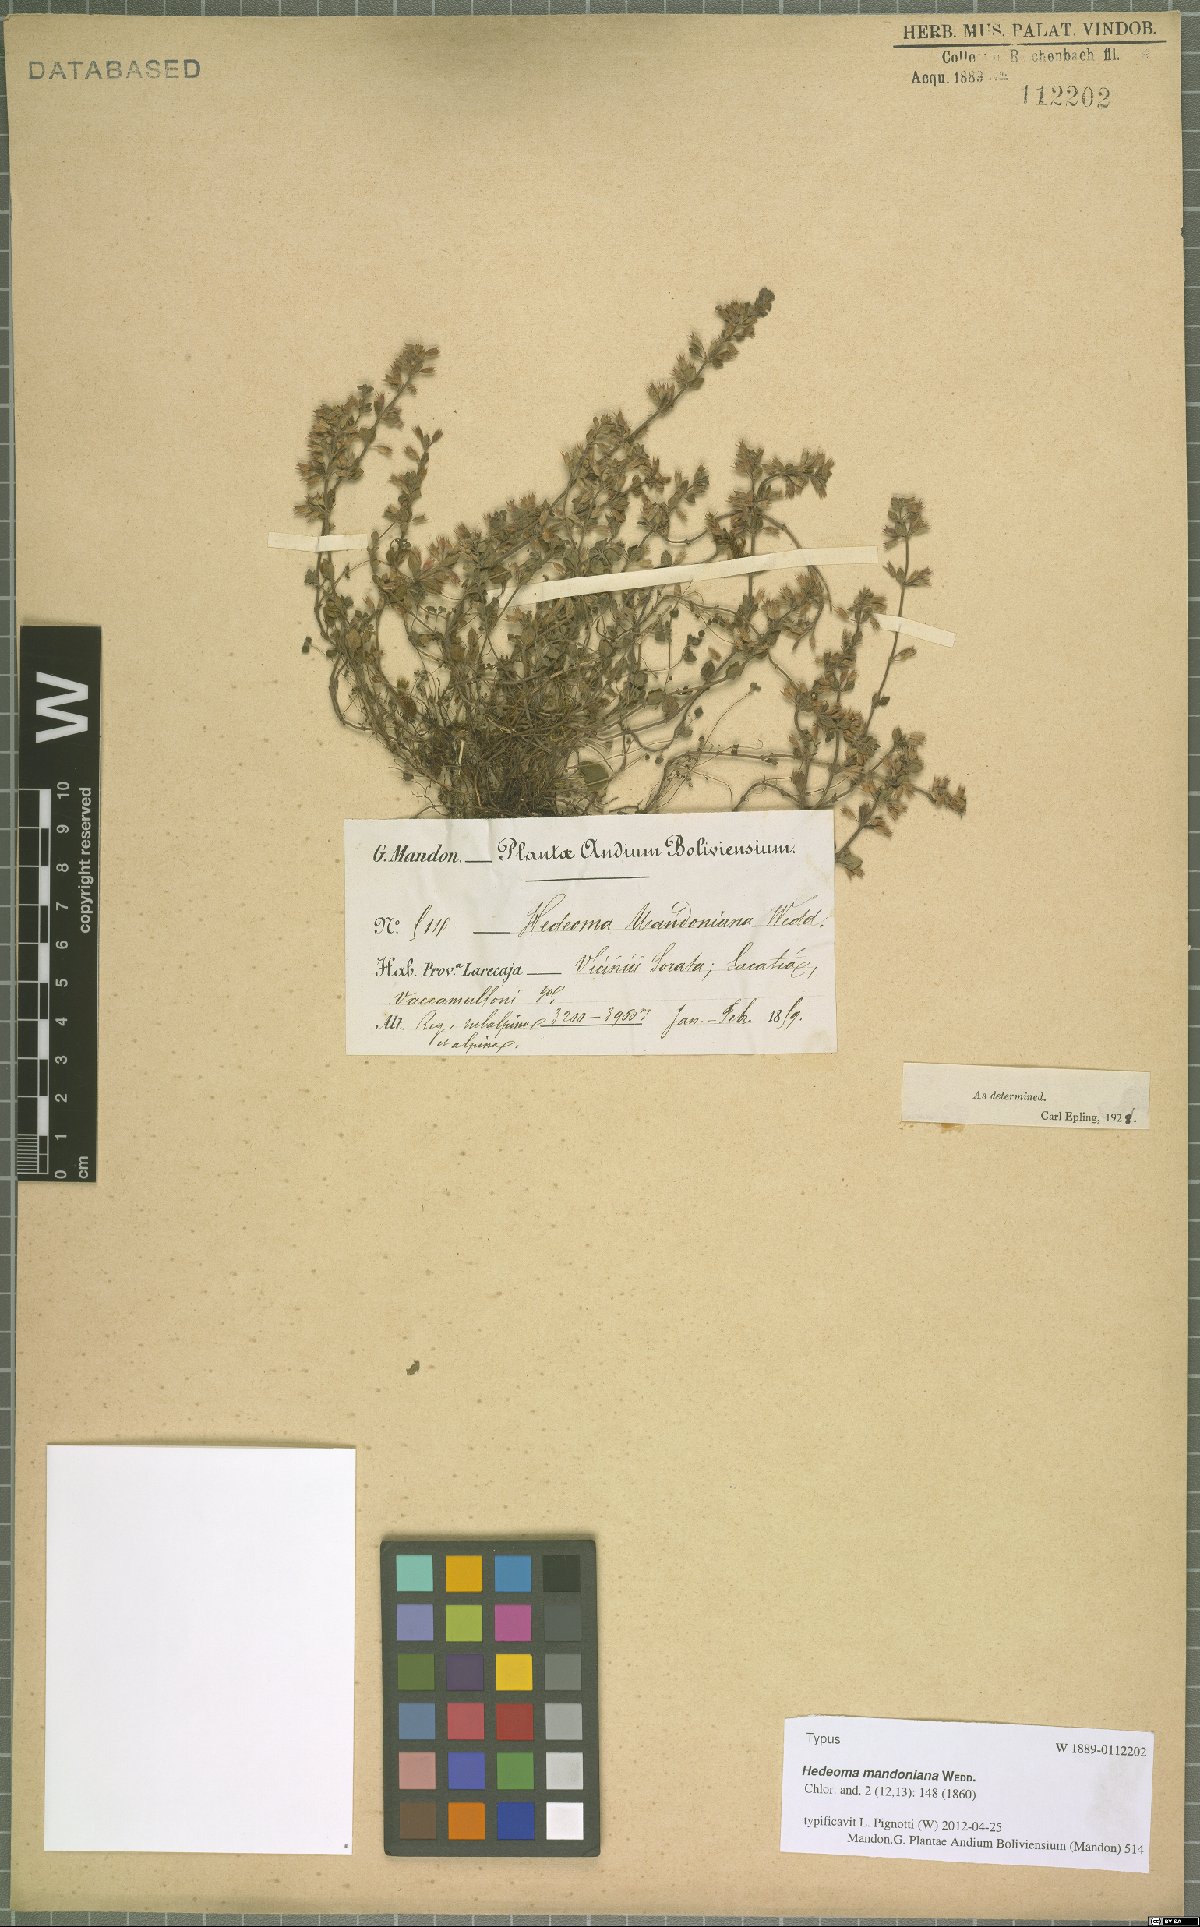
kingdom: Plantae
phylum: Tracheophyta
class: Magnoliopsida
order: Lamiales
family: Lamiaceae
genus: Hedeoma
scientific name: Hedeoma mandoniana
